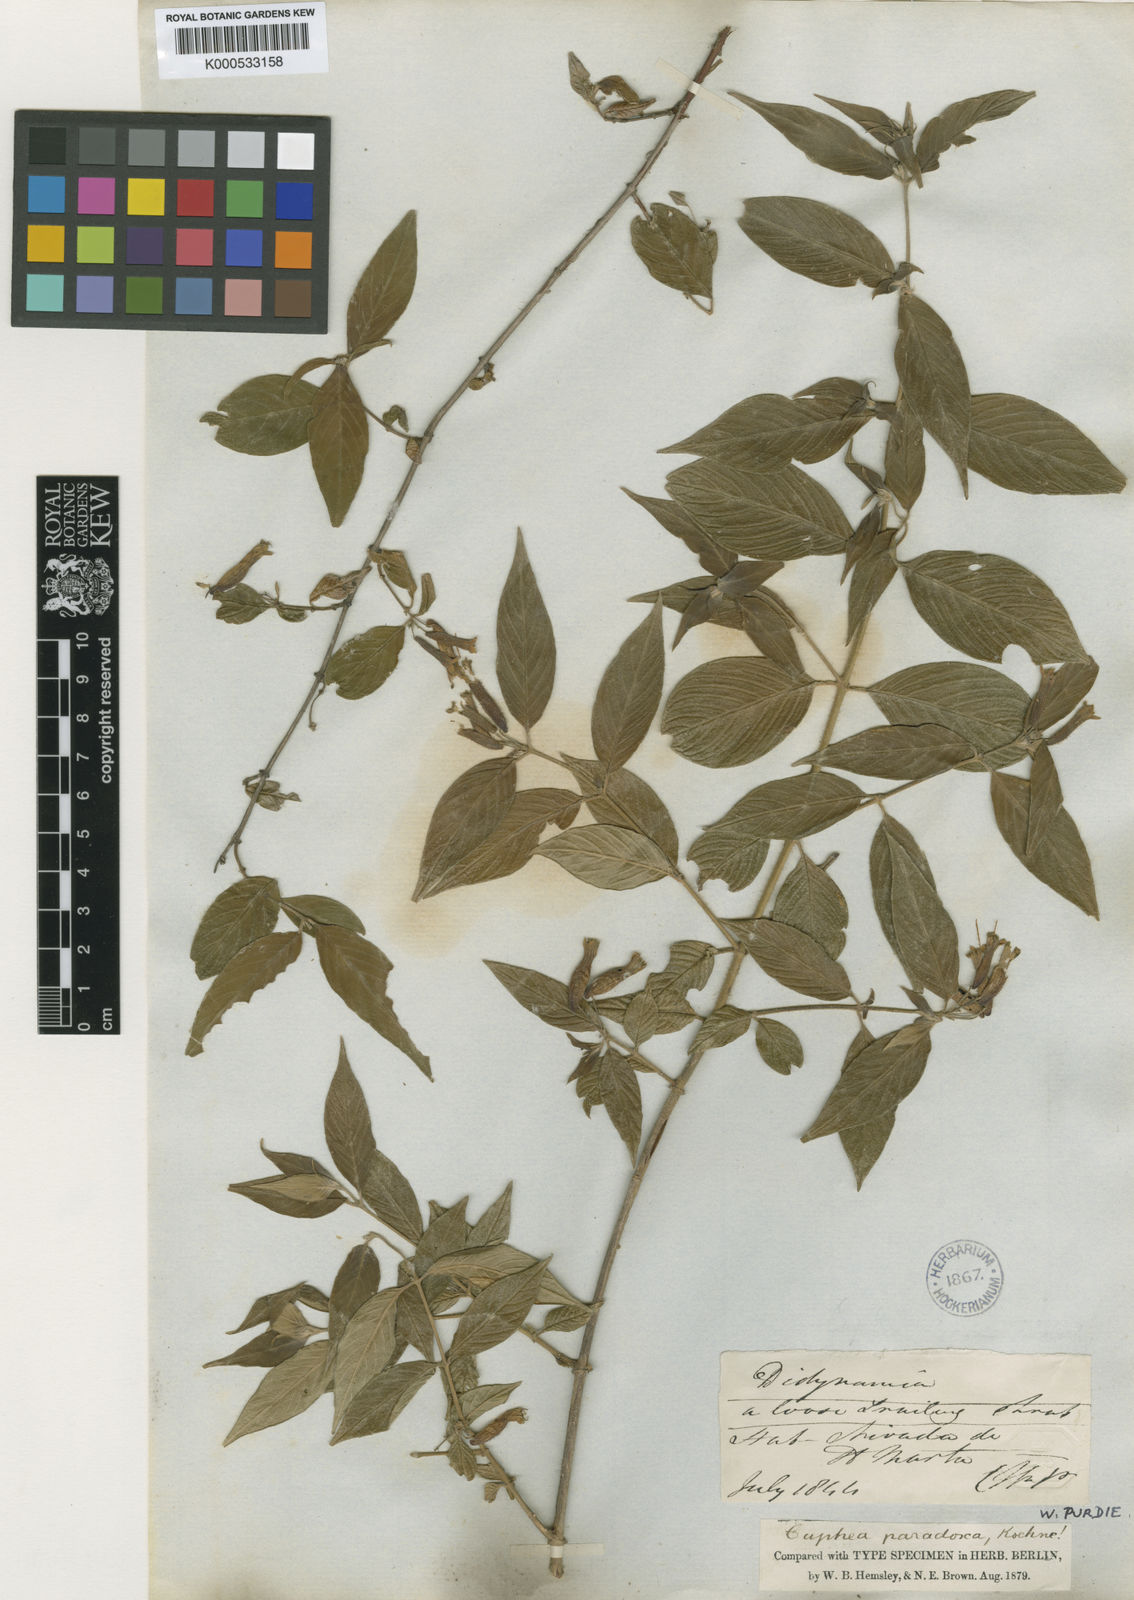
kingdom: Plantae
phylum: Tracheophyta
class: Magnoliopsida
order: Myrtales
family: Lythraceae
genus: Cuphea
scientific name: Cuphea paradoxa
